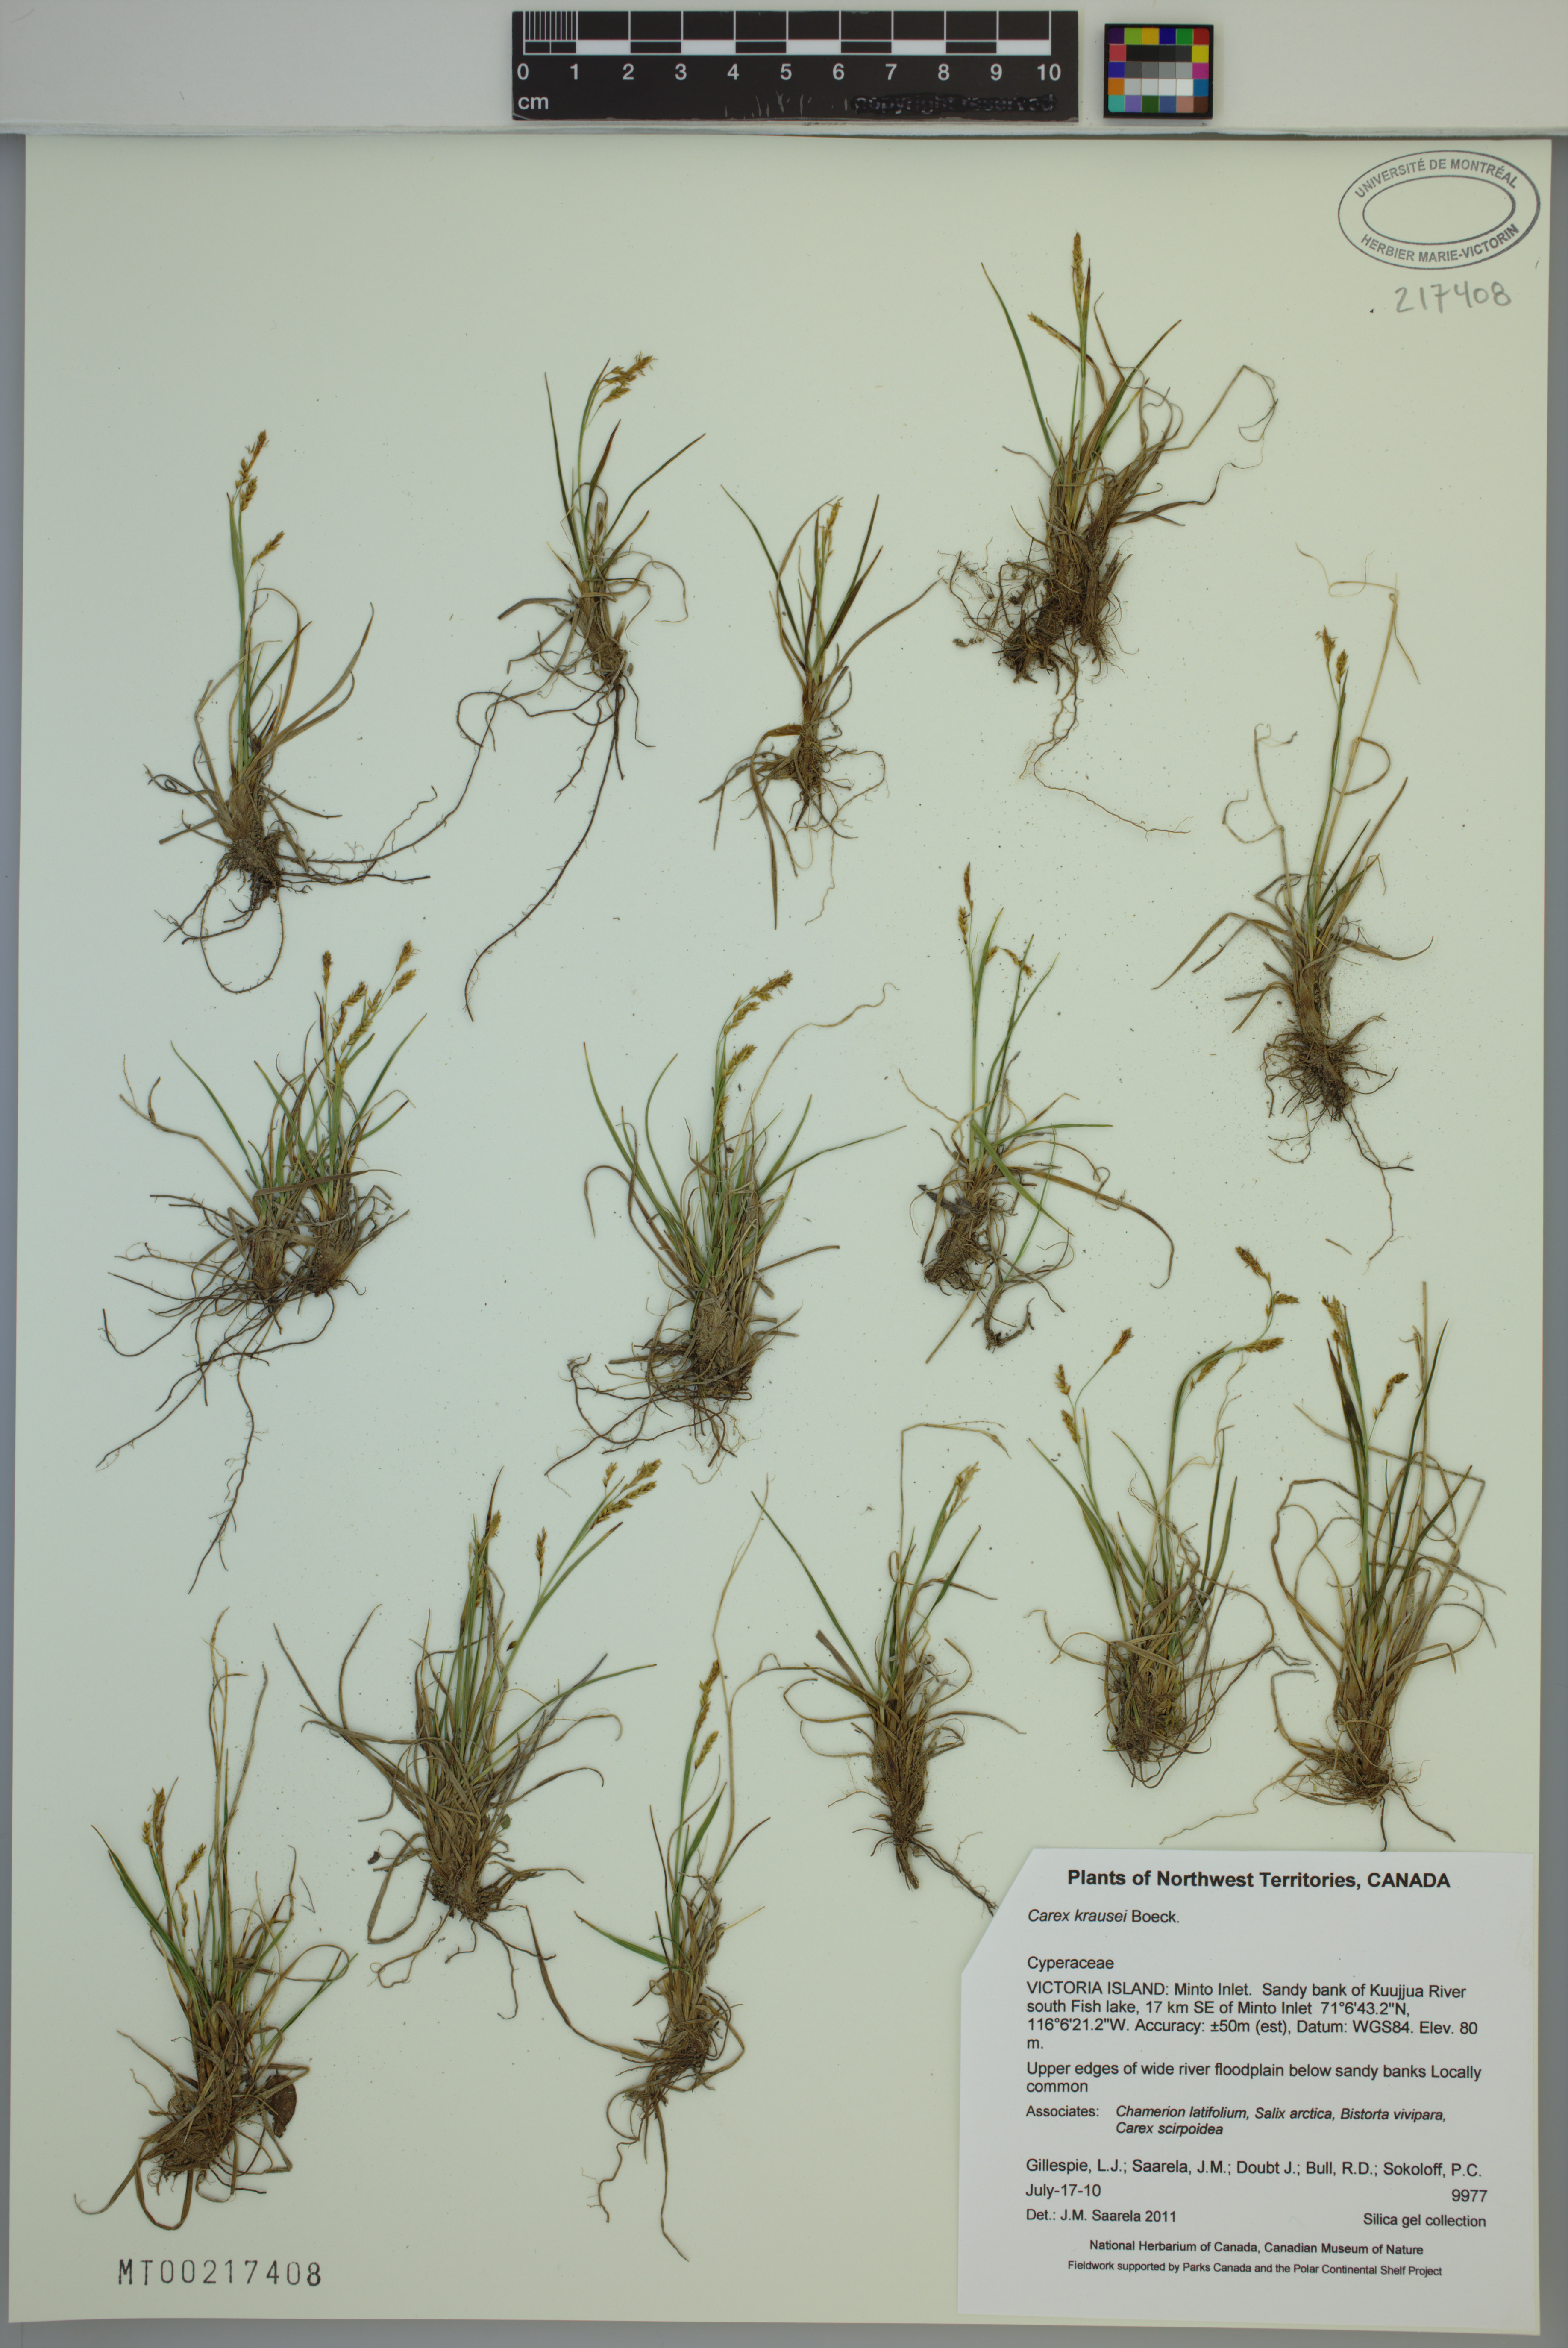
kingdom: Plantae
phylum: Tracheophyta
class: Liliopsida
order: Poales
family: Cyperaceae
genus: Carex
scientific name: Carex krausei
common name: Krause's sedge
